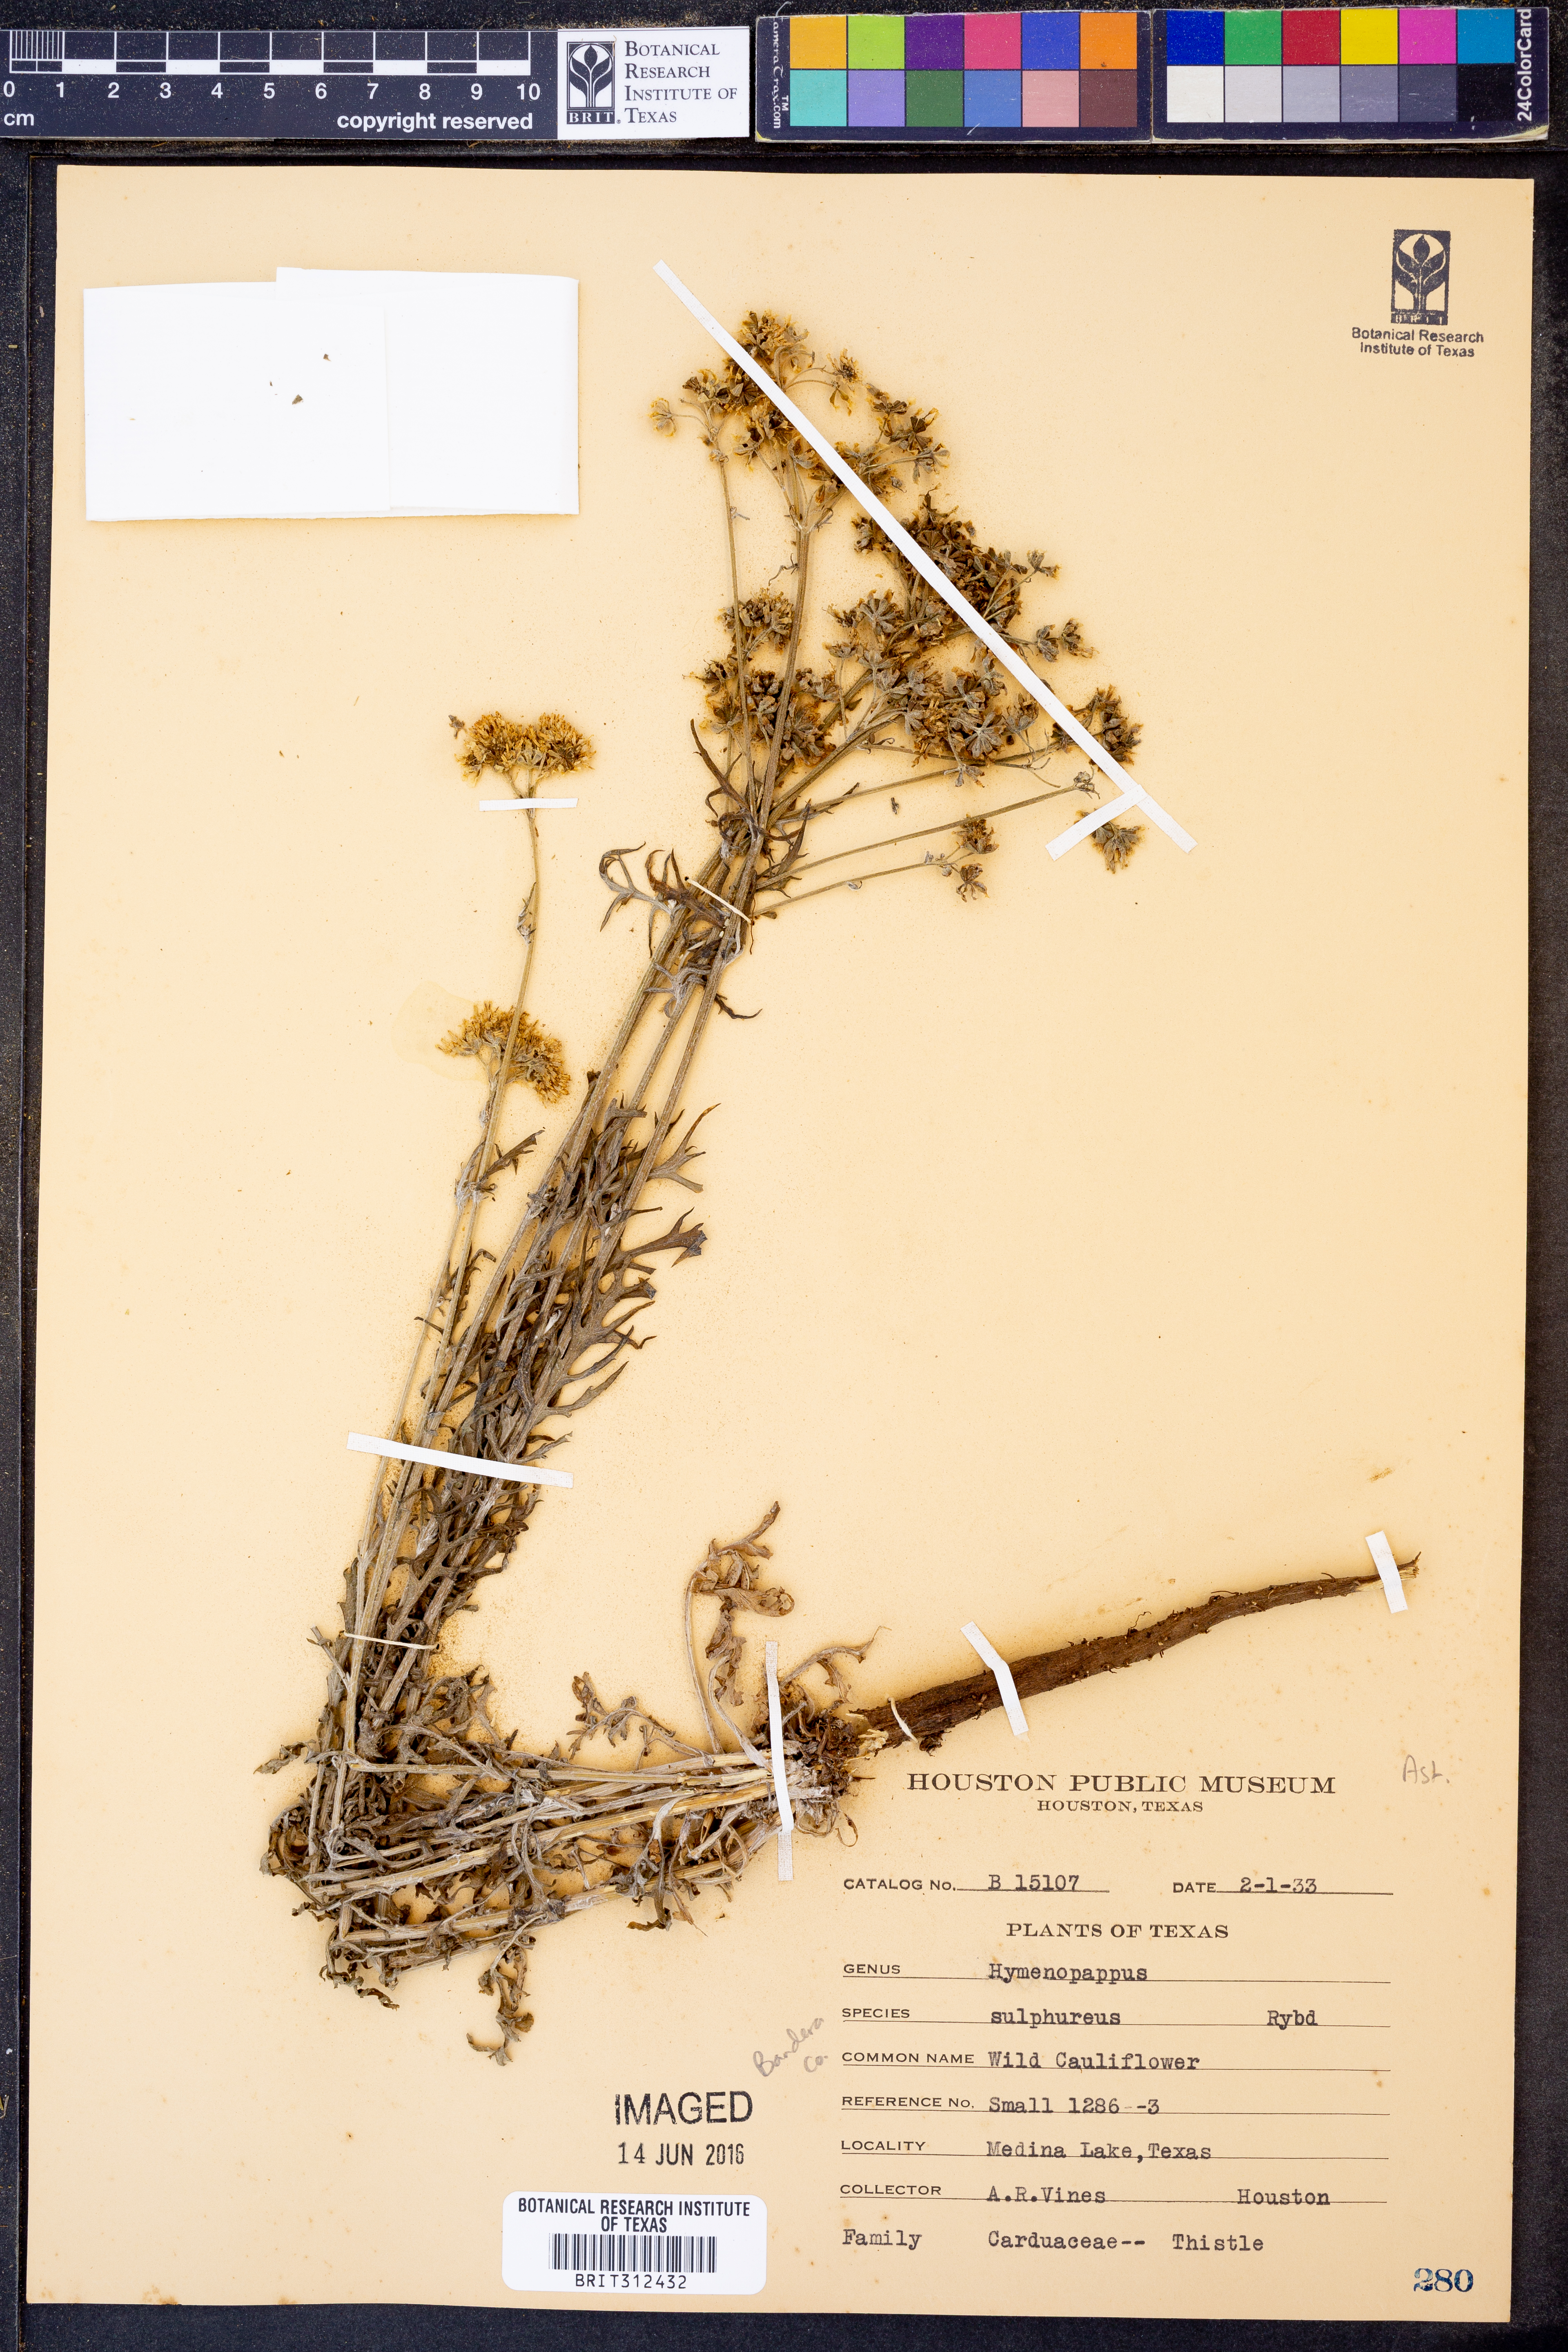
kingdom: Plantae
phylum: Tracheophyta
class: Magnoliopsida
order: Asterales
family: Asteraceae
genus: Hymenopappus
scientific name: Hymenopappus sulphureus
